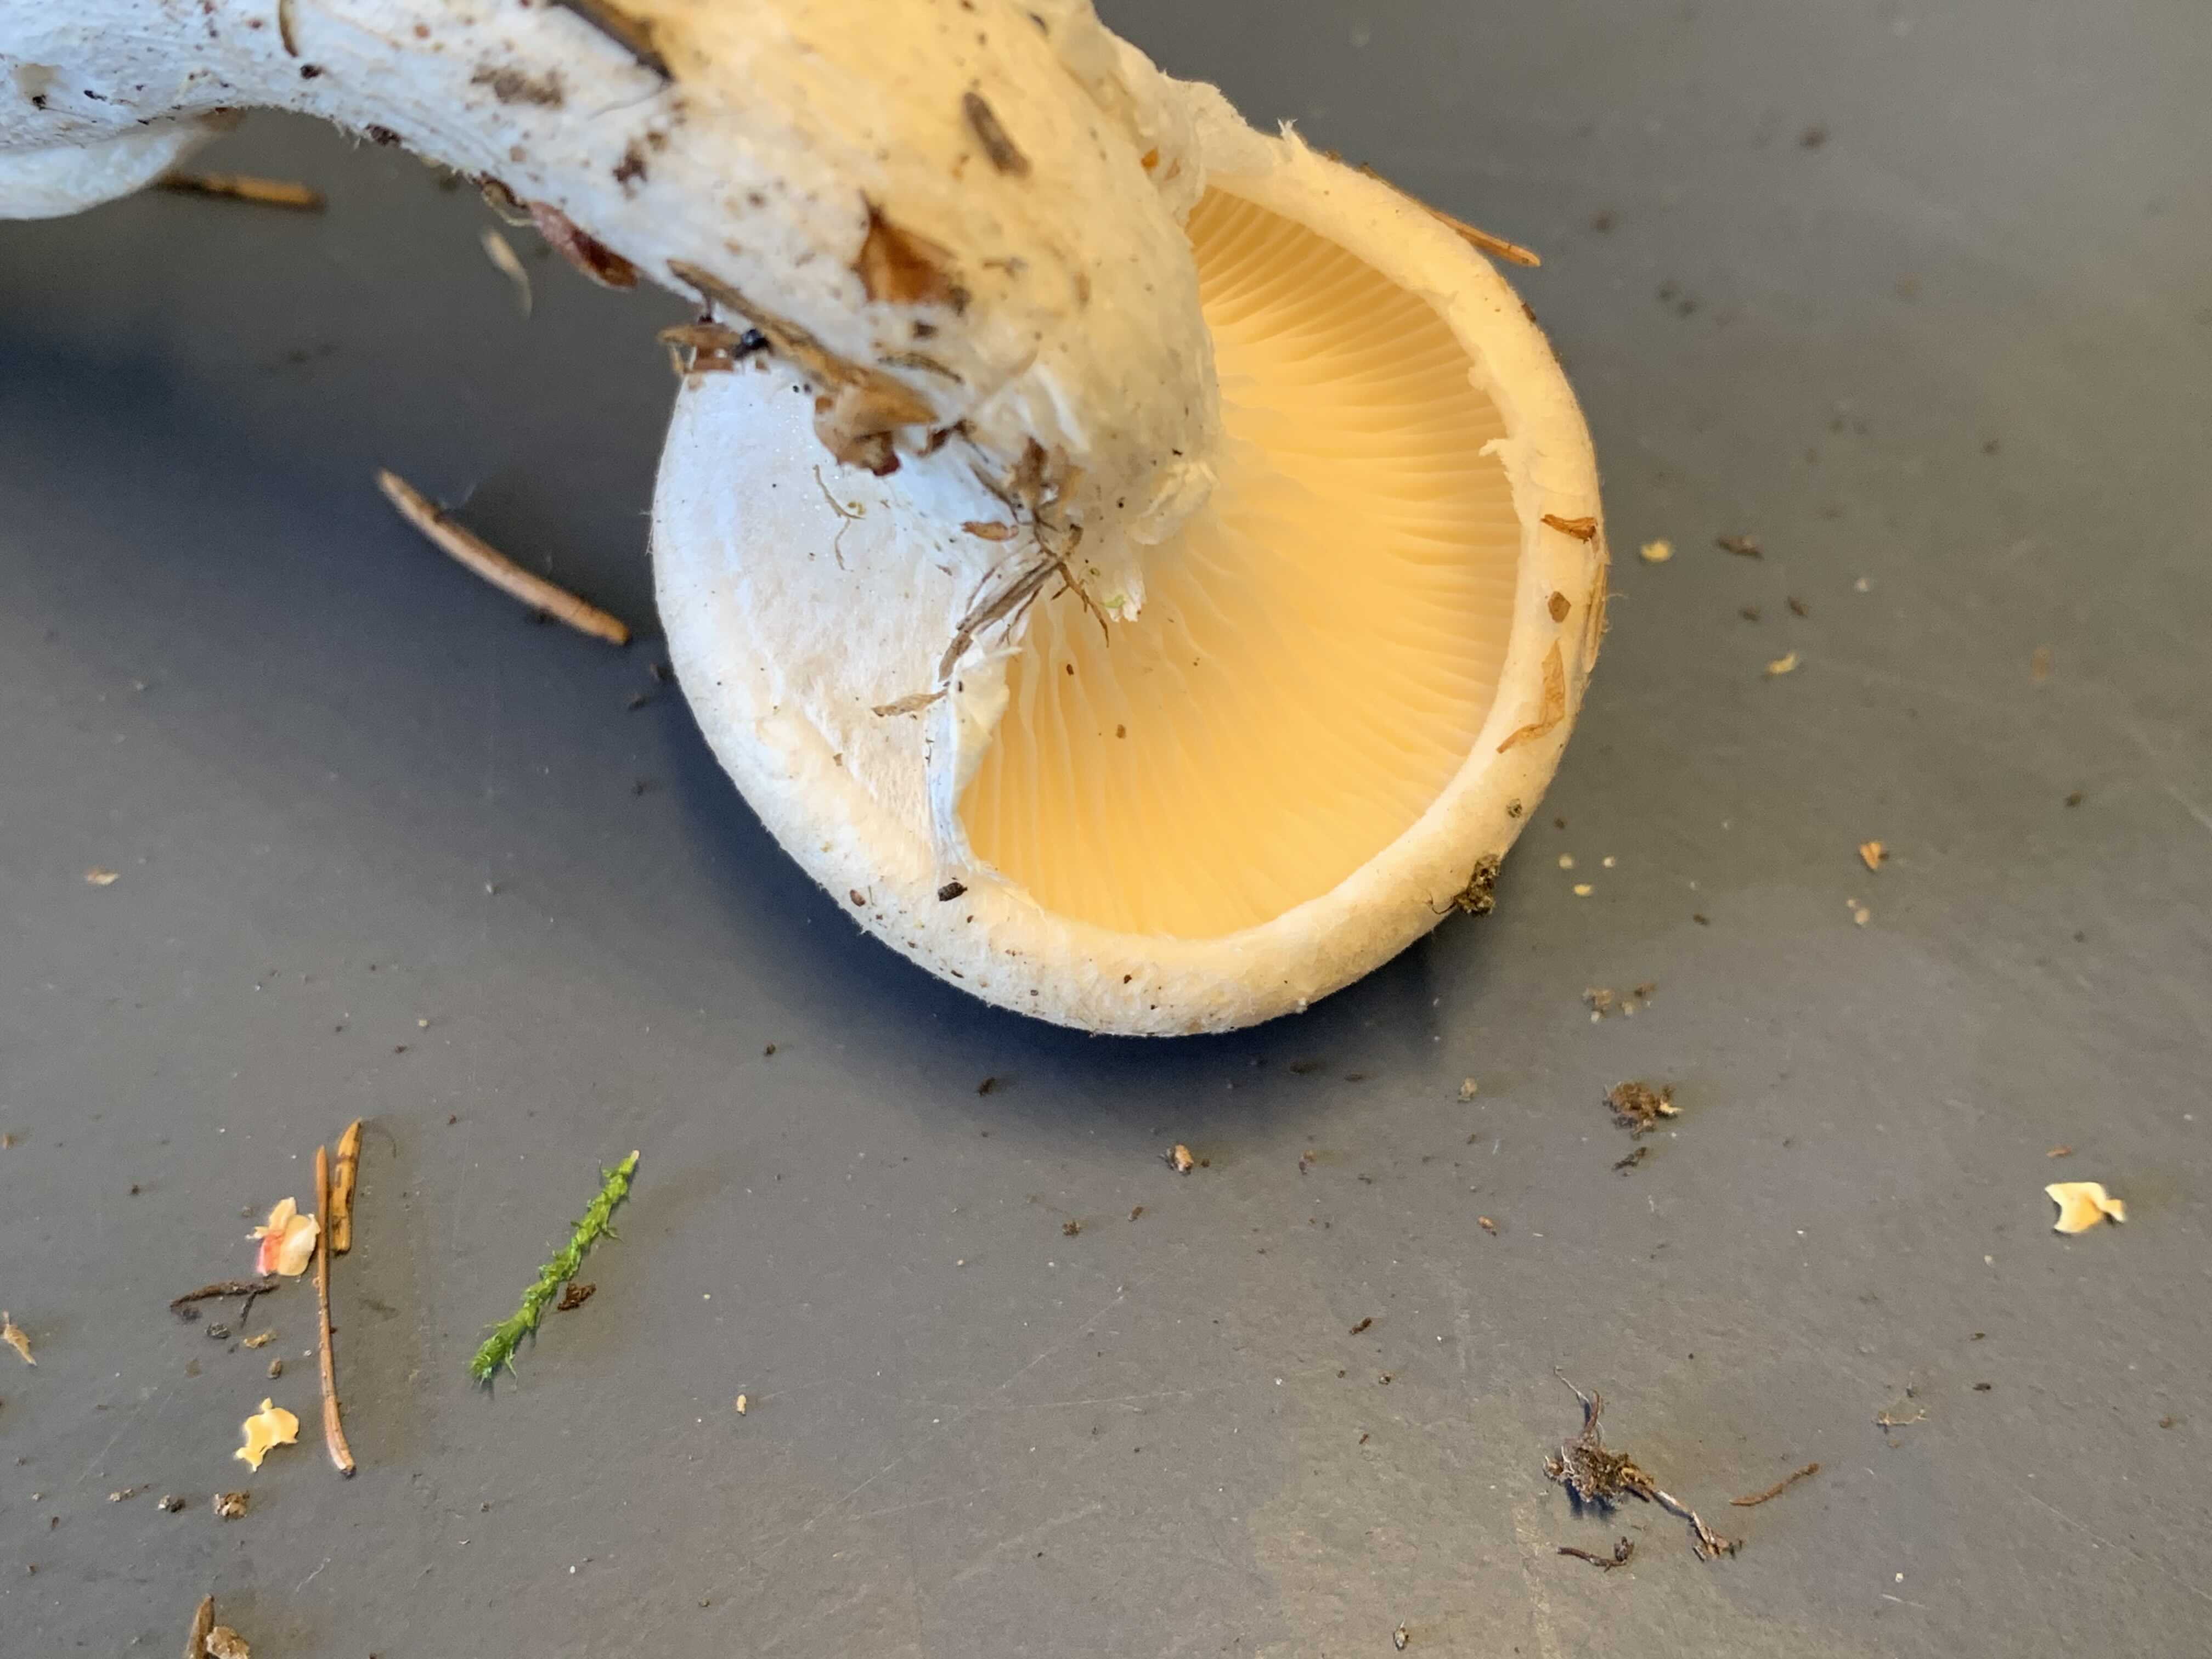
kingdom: Fungi
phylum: Basidiomycota
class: Agaricomycetes
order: Agaricales
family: Pleurotaceae
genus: Pleurotus
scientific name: Pleurotus dryinus
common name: korkagtig østershat
